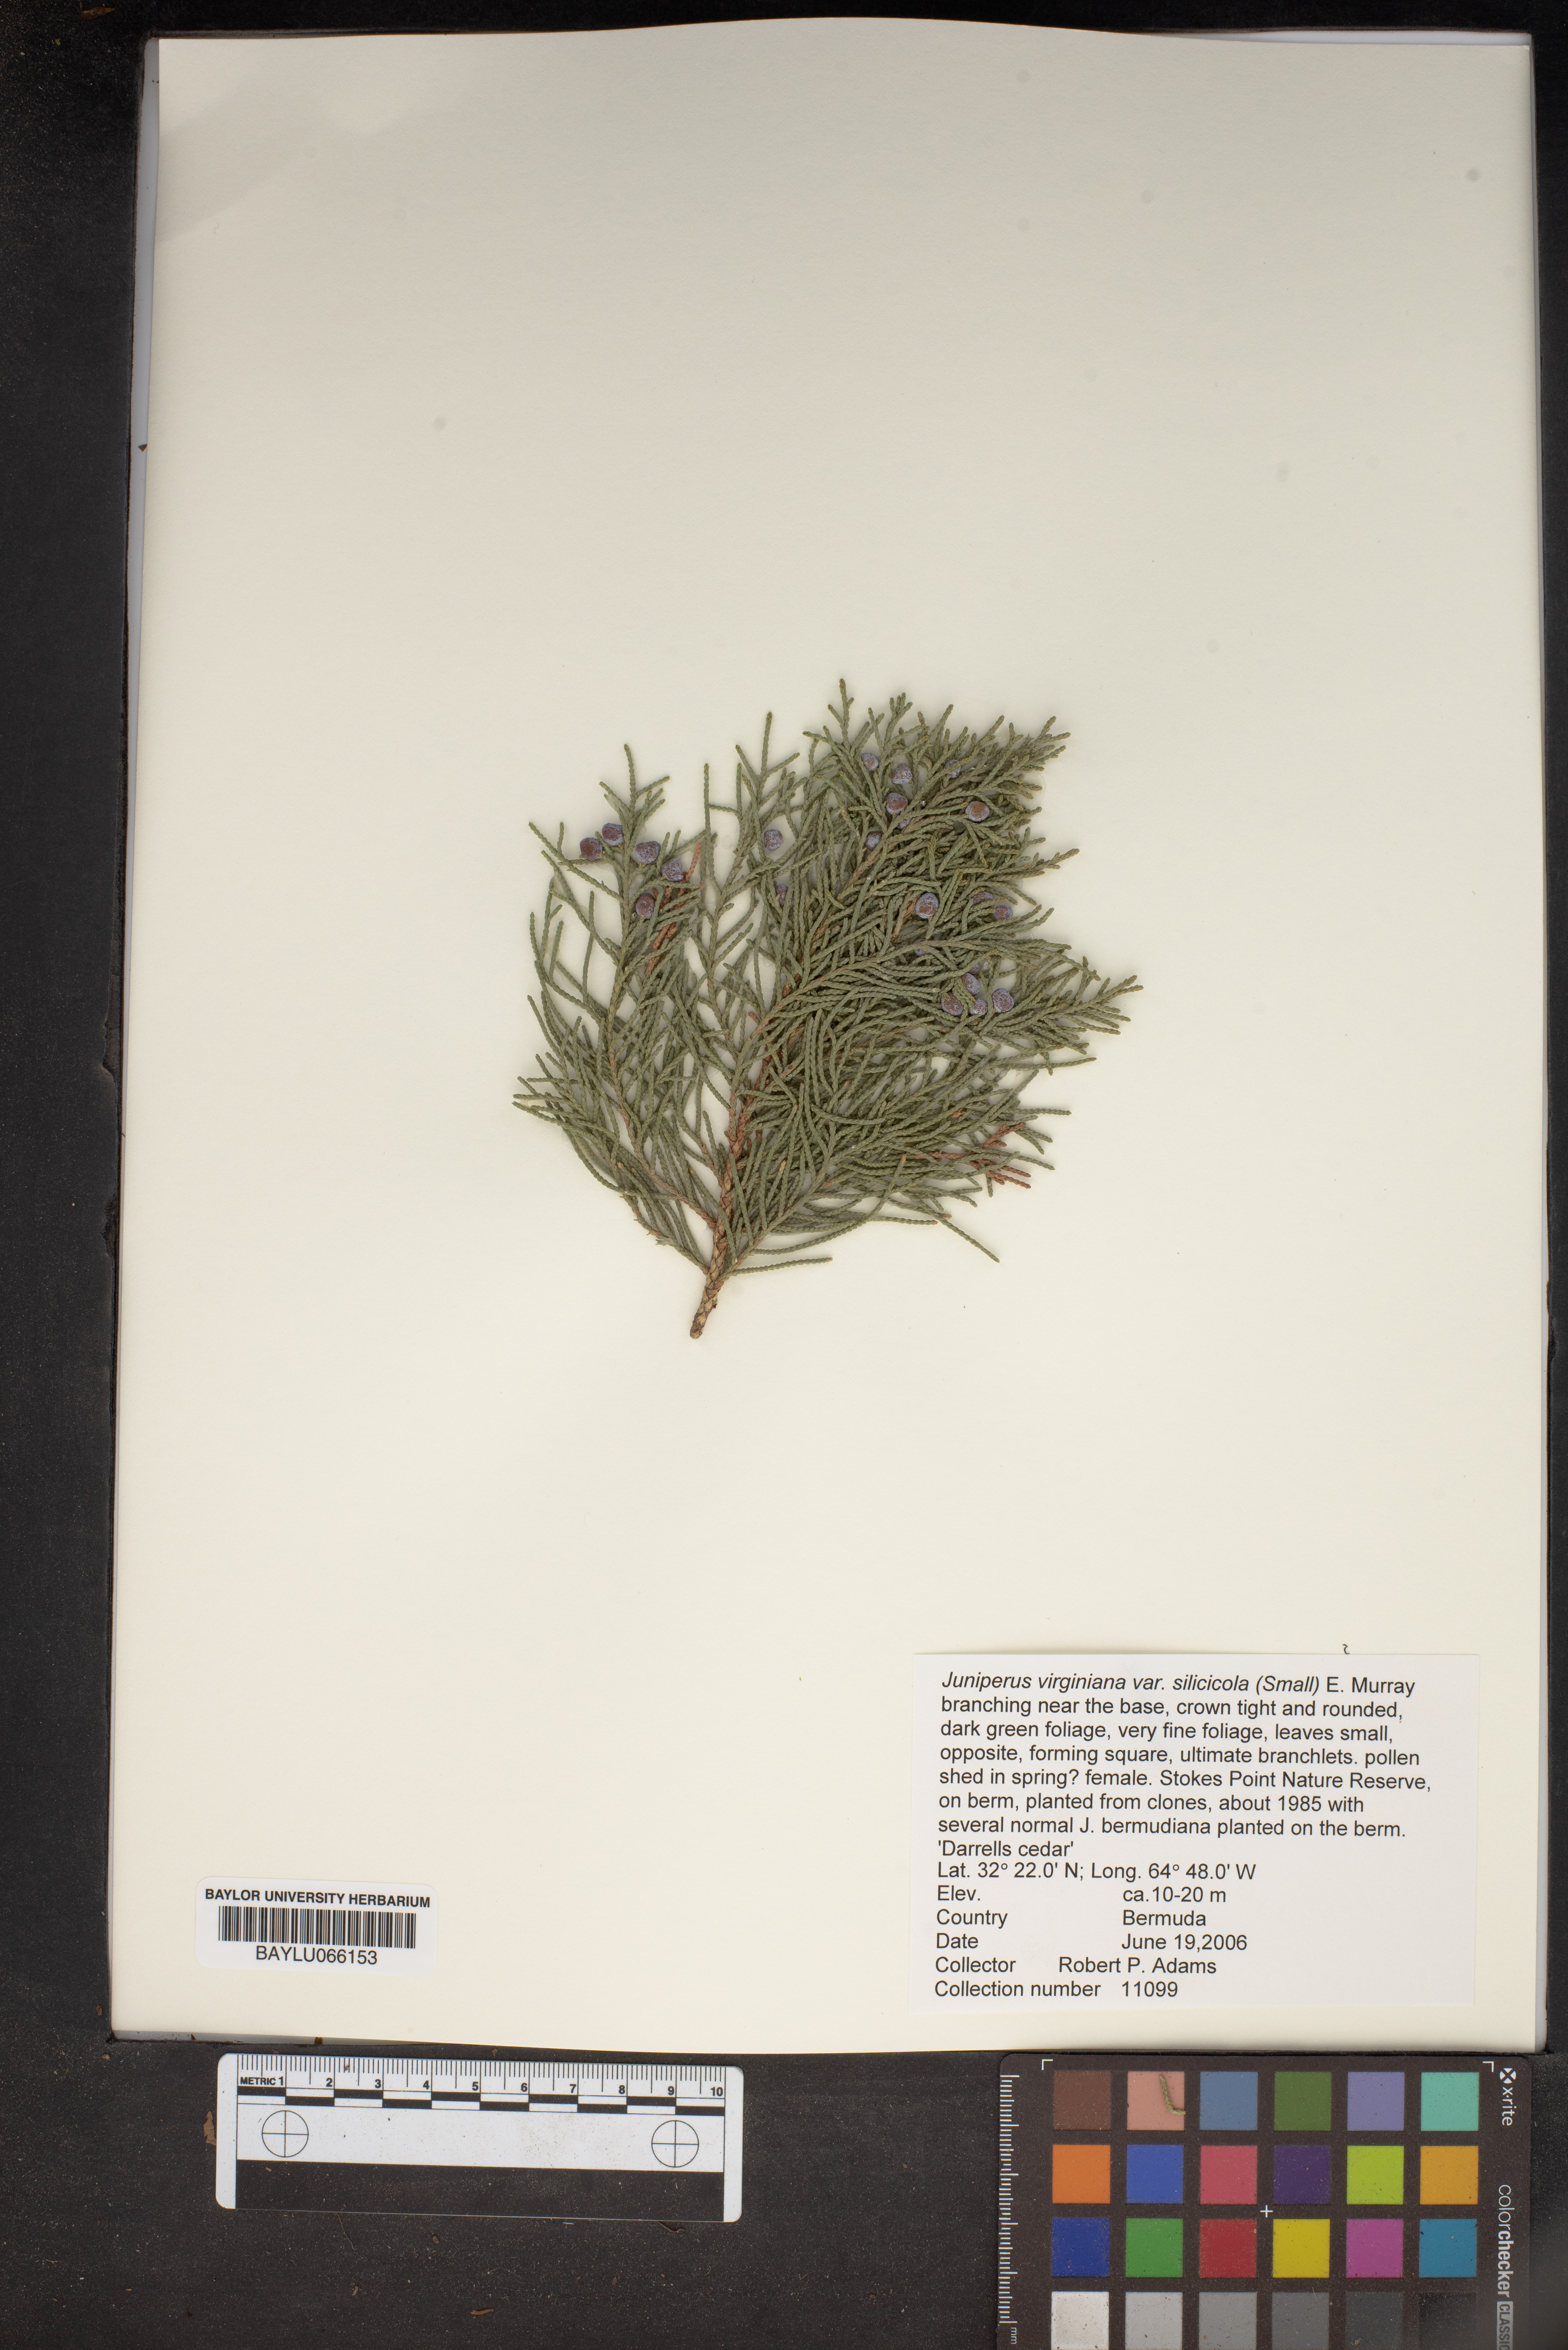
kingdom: Plantae
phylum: Tracheophyta
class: Pinopsida
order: Pinales
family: Cupressaceae
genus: Juniperus
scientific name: Juniperus virginiana
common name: Red juniper
